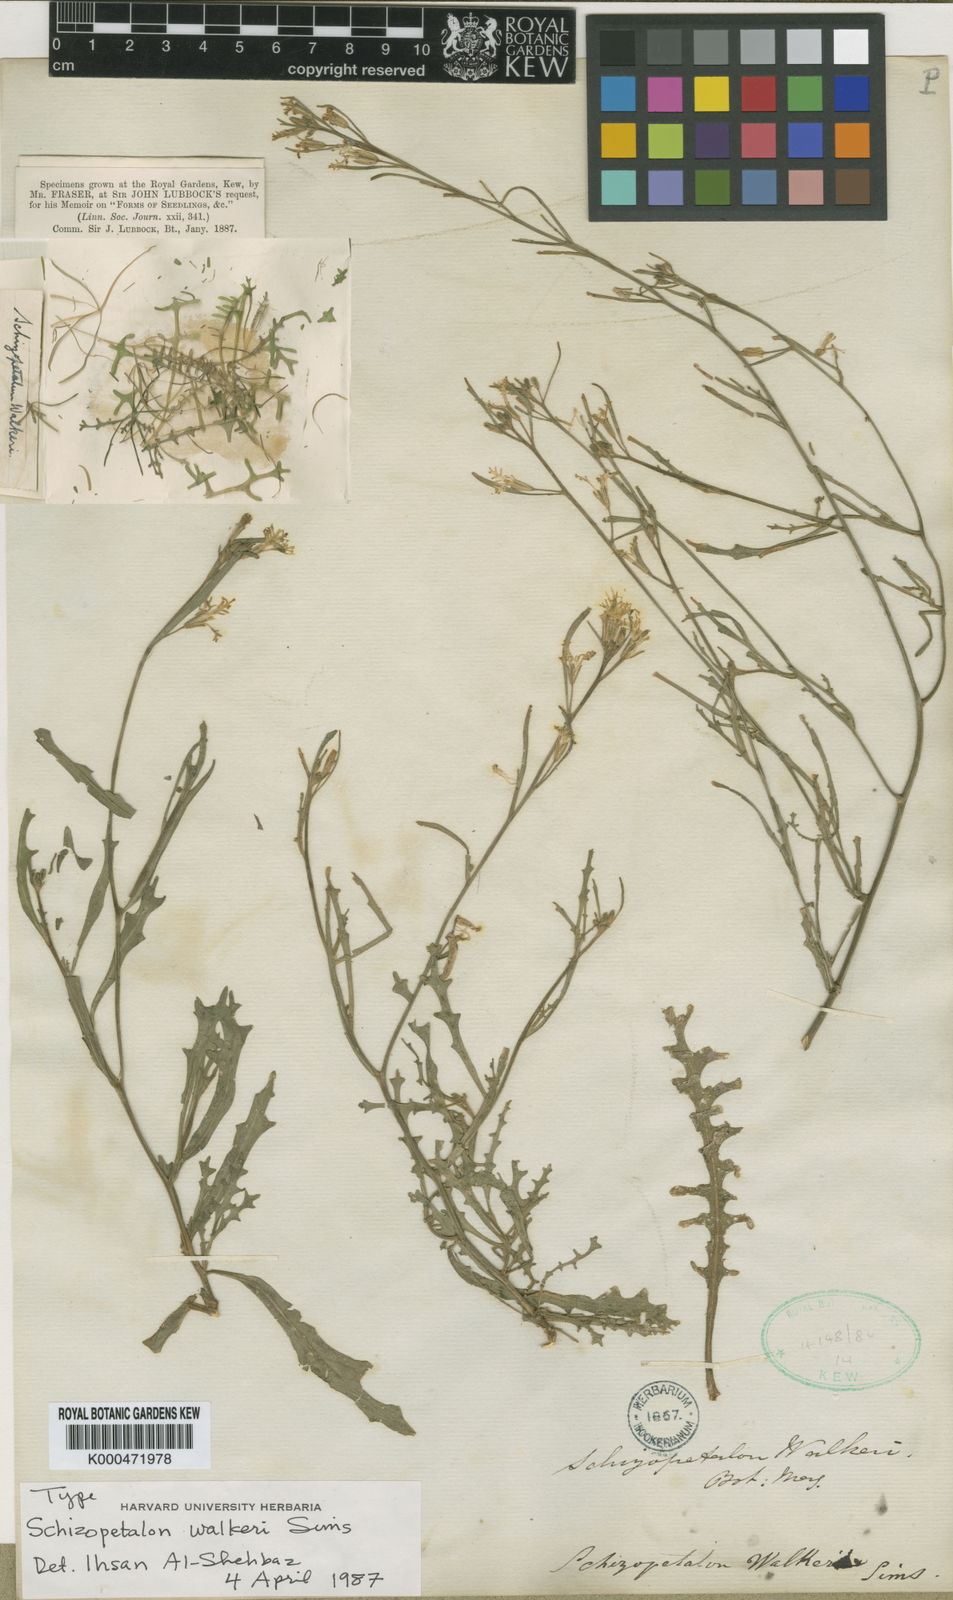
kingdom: Plantae
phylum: Tracheophyta
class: Magnoliopsida
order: Brassicales
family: Brassicaceae
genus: Schizopetalon
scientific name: Schizopetalon walkeri
